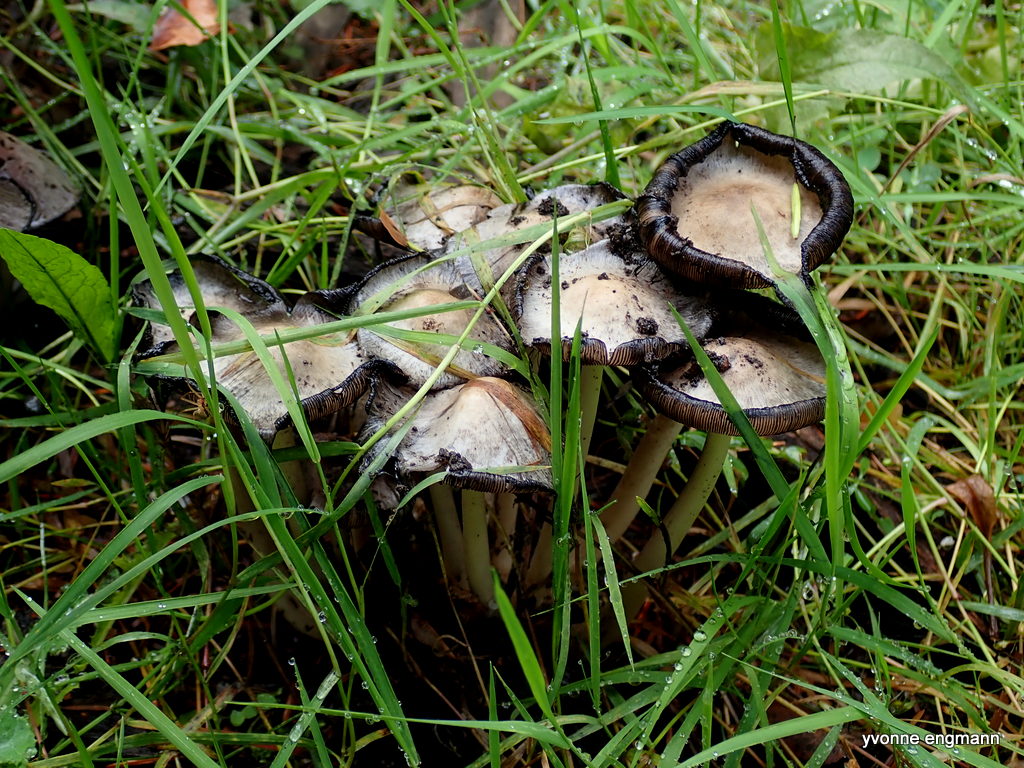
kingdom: Fungi
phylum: Basidiomycota
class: Agaricomycetes
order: Agaricales
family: Psathyrellaceae
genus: Coprinopsis
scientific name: Coprinopsis atramentaria
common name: almindelig blækhat
